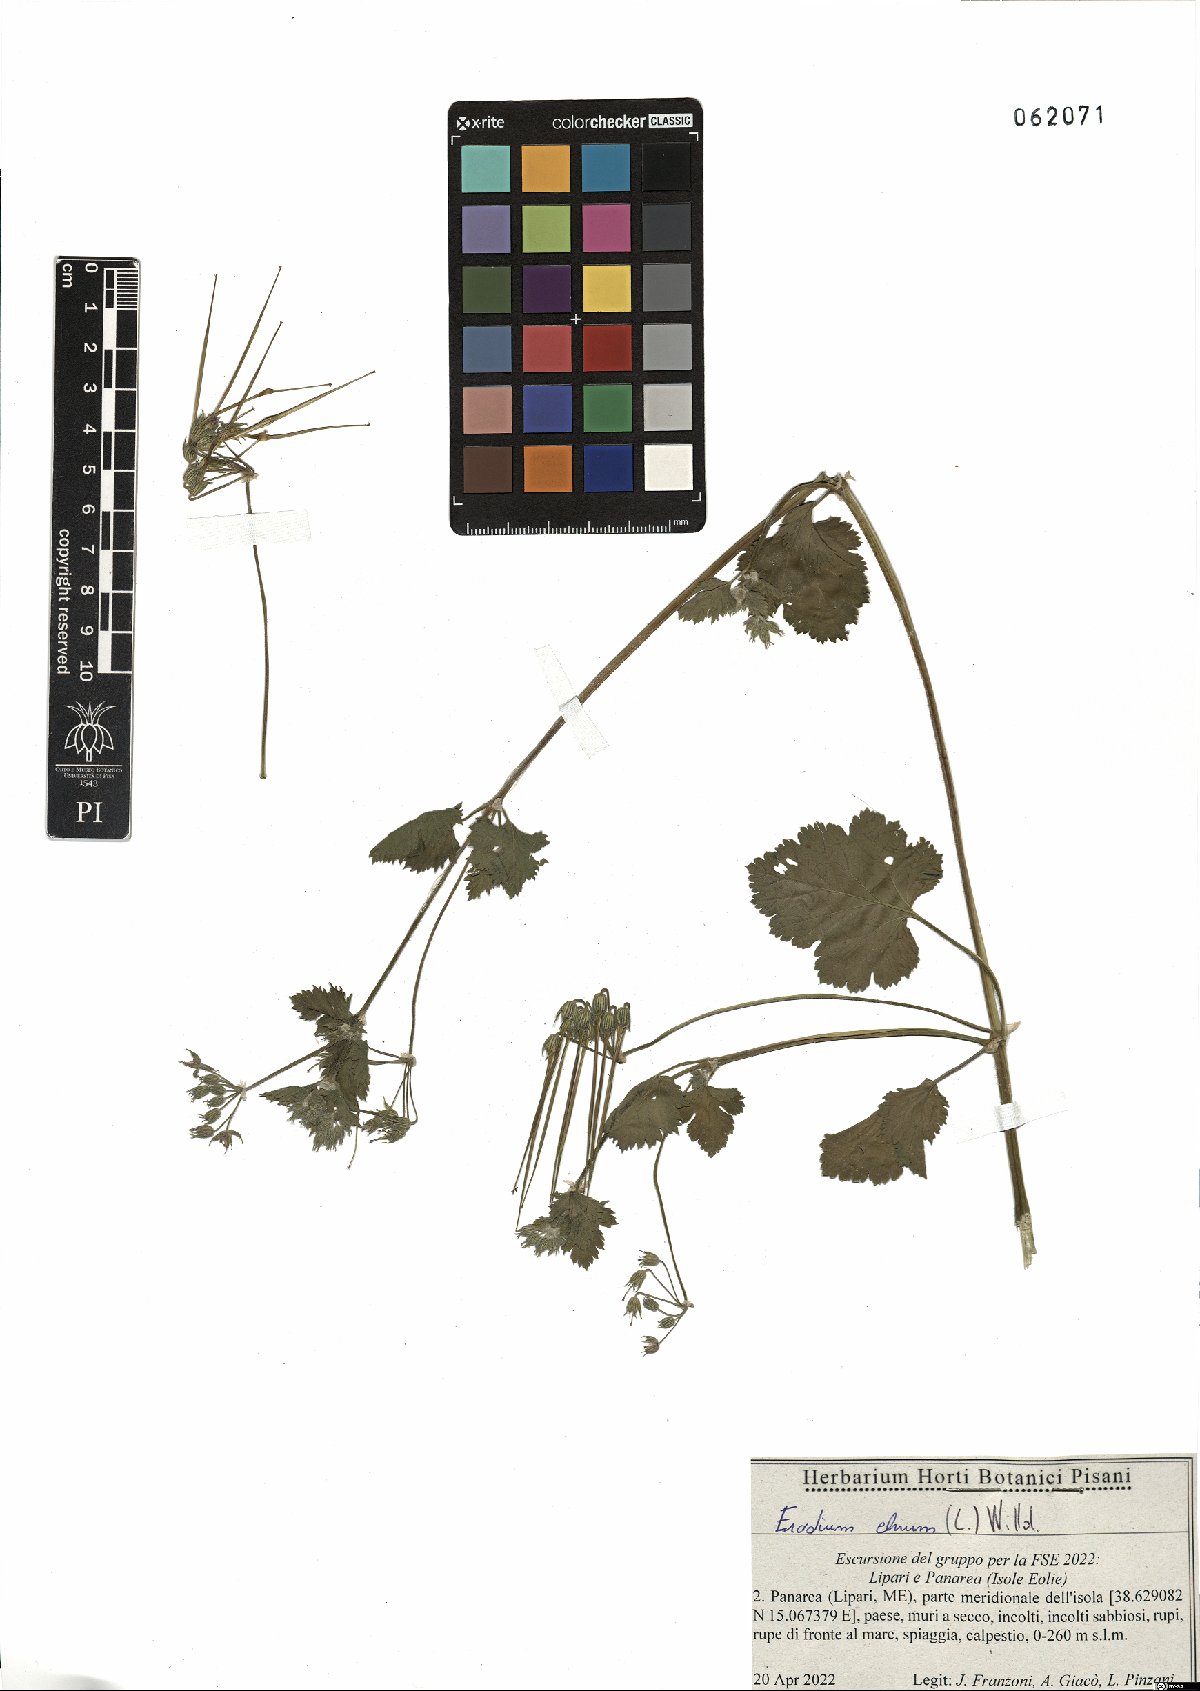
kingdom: Plantae
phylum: Tracheophyta
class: Magnoliopsida
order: Geraniales
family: Geraniaceae
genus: Erodium
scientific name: Erodium chium
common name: Three-lobed stork's-bill
